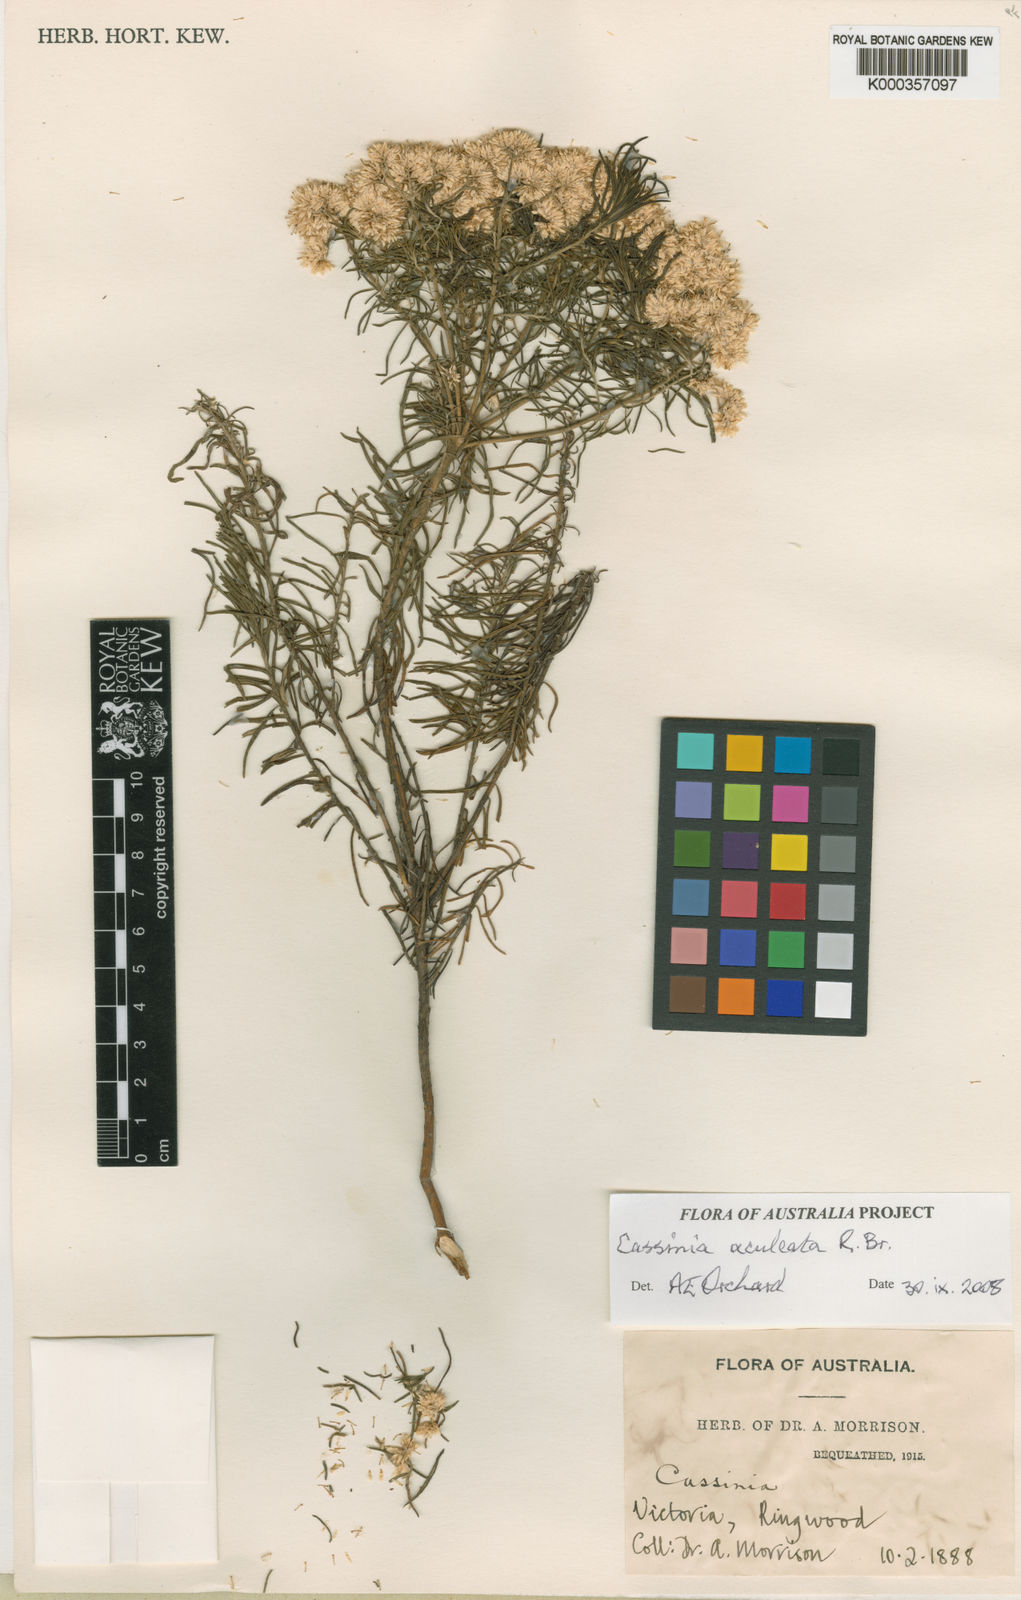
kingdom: Plantae
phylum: Tracheophyta
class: Magnoliopsida
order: Asterales
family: Asteraceae
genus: Cassinia
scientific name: Cassinia aculeata
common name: Australian tauhinu
